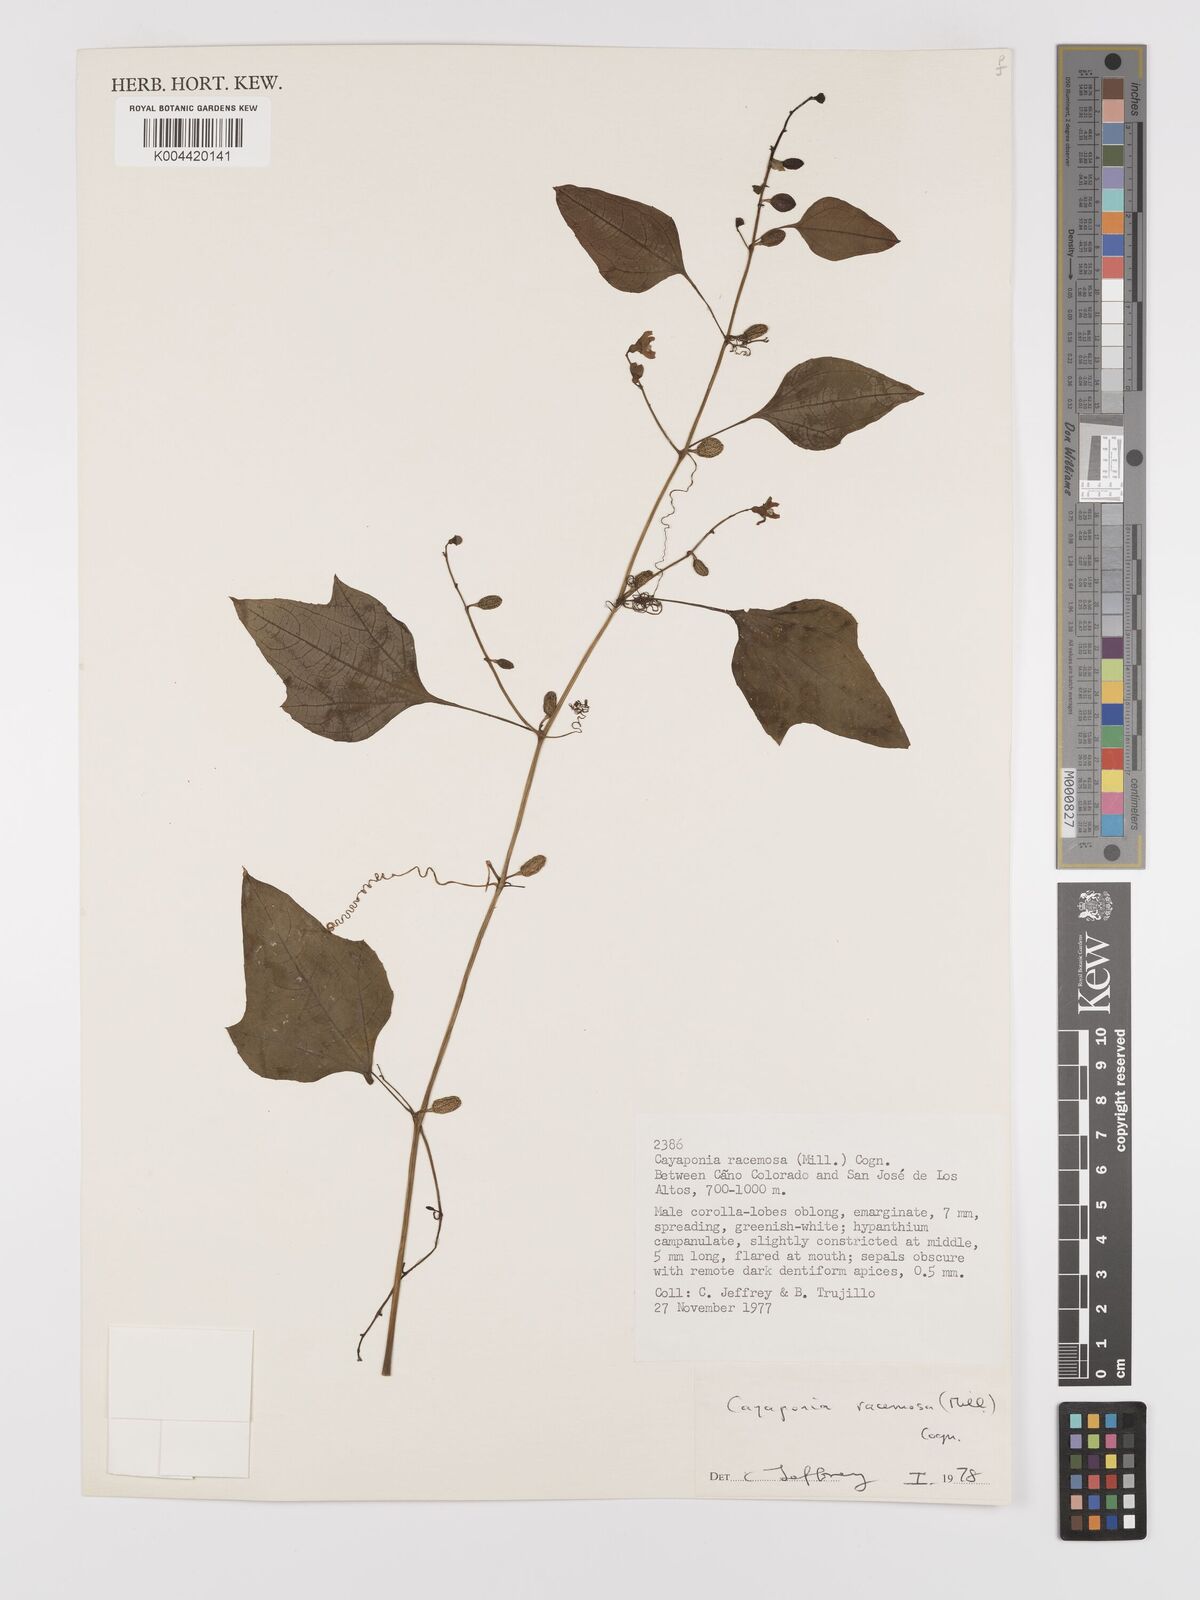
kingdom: Plantae
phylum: Tracheophyta
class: Magnoliopsida
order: Cucurbitales
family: Cucurbitaceae
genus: Cayaponia
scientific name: Cayaponia racemosa
